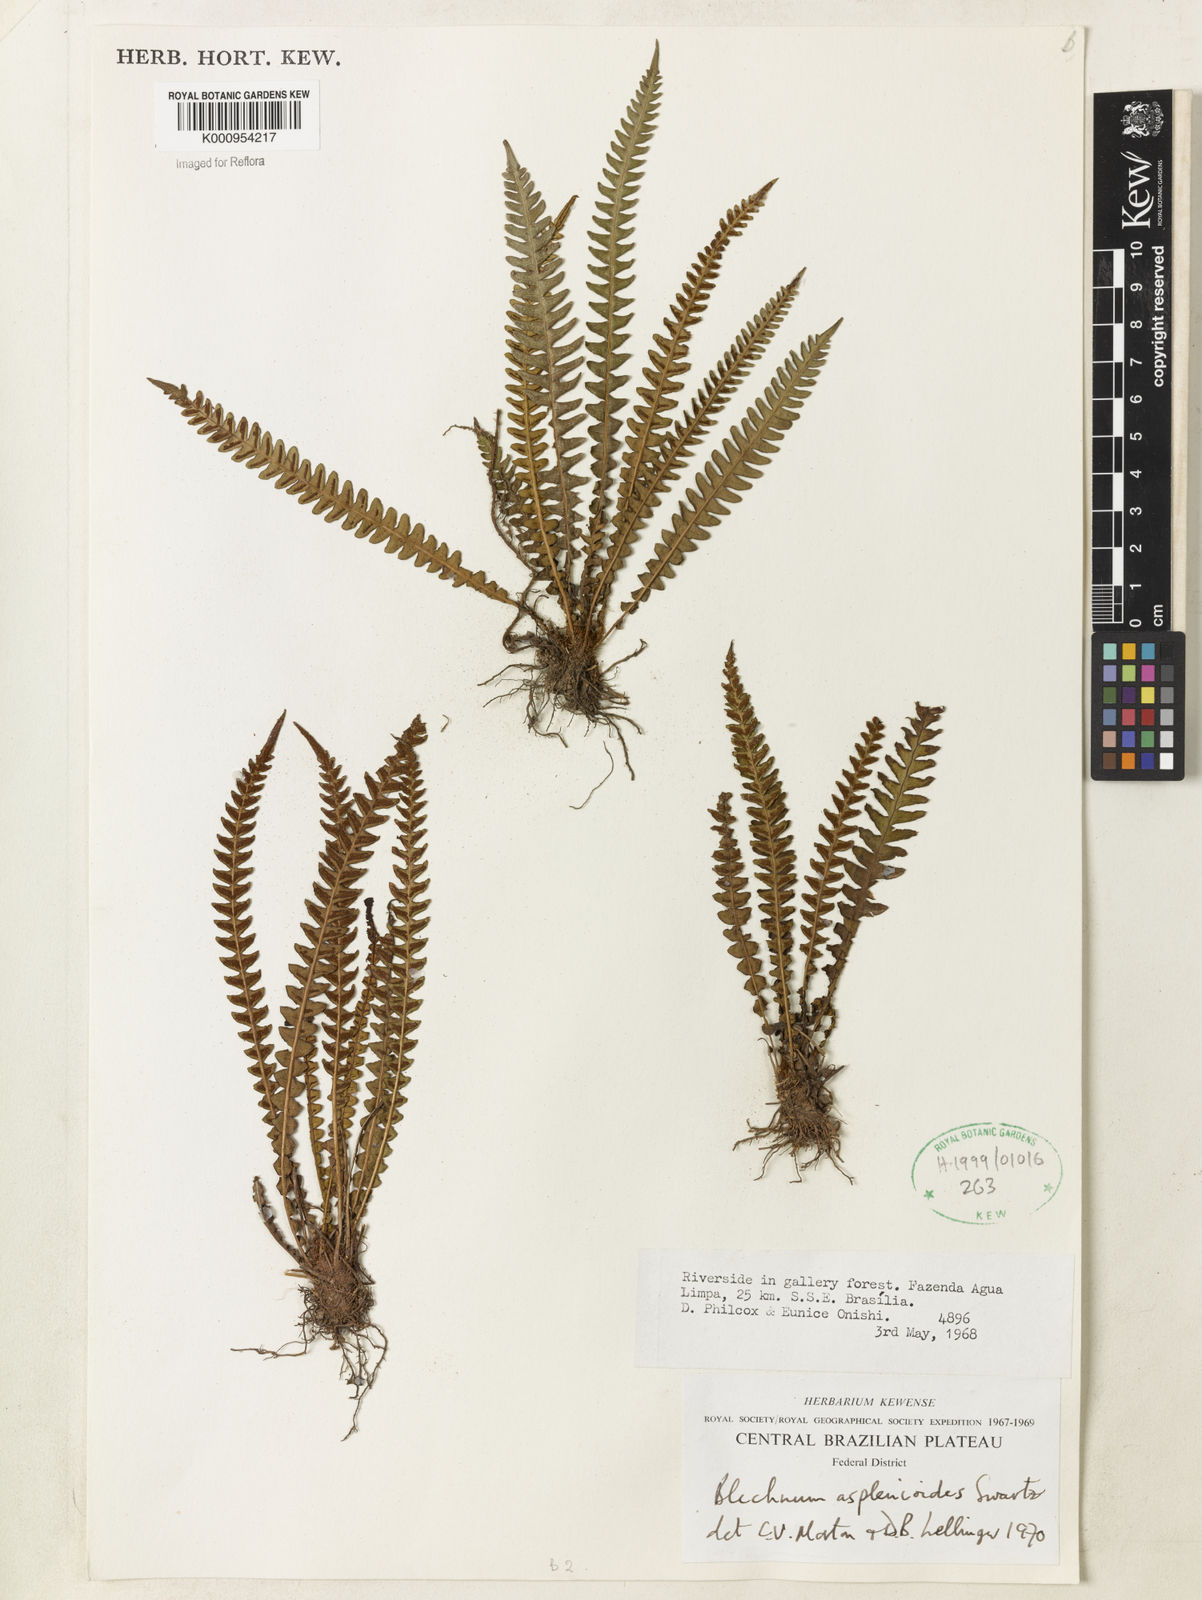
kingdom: Plantae
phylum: Tracheophyta
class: Polypodiopsida
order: Polypodiales
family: Blechnaceae
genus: Blechnum
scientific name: Blechnum asplenioides
